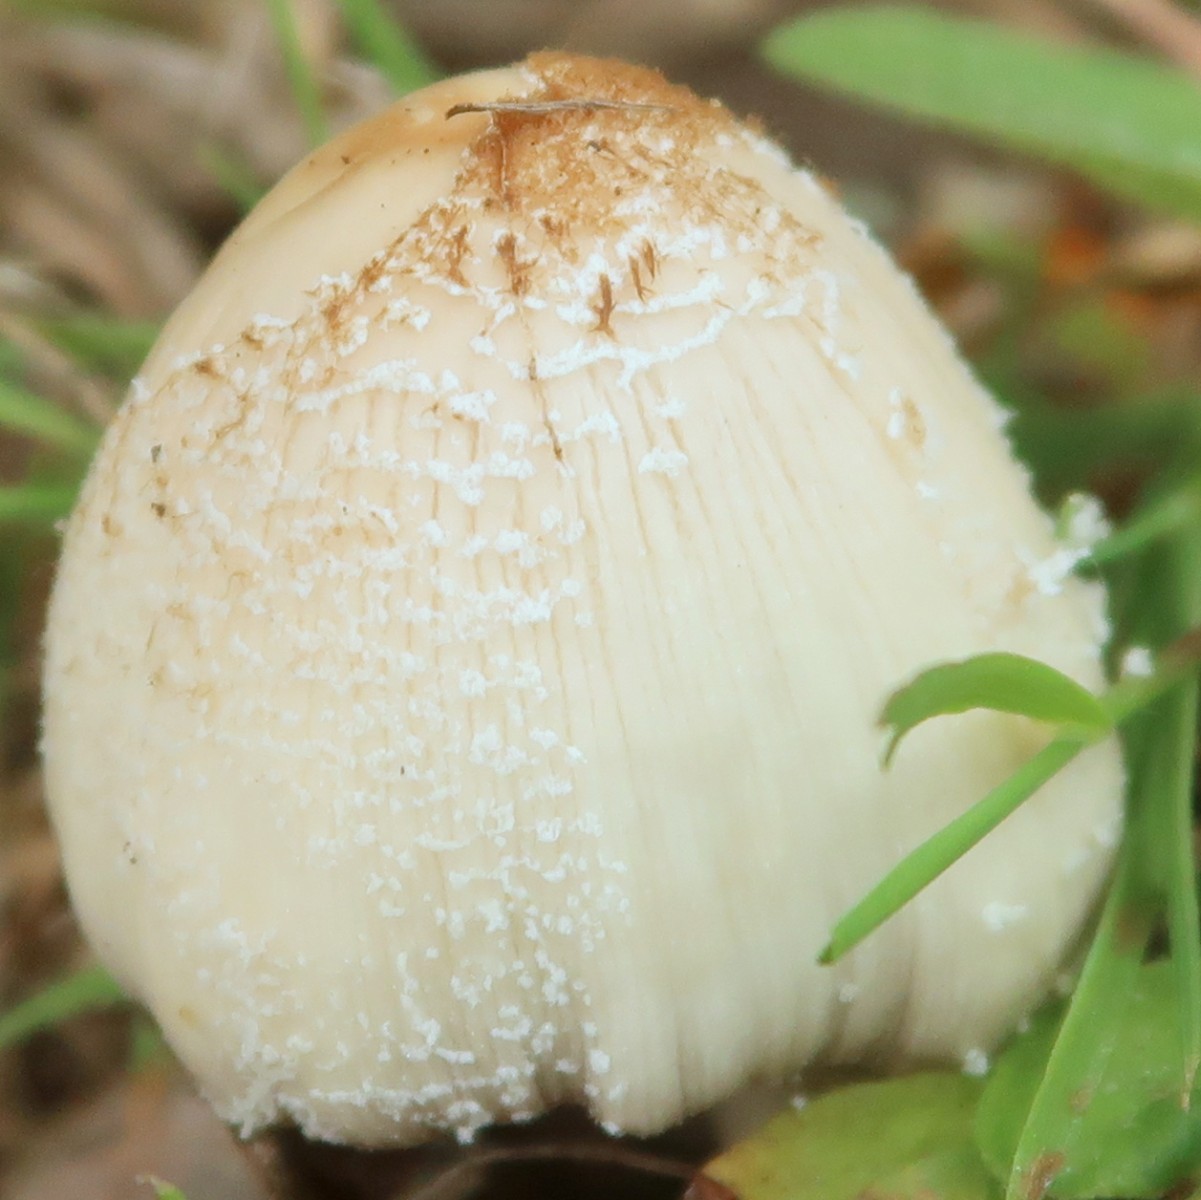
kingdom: Fungi
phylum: Basidiomycota
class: Agaricomycetes
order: Agaricales
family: Psathyrellaceae
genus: Coprinellus
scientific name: Coprinellus domesticus
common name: hus-blækhat
